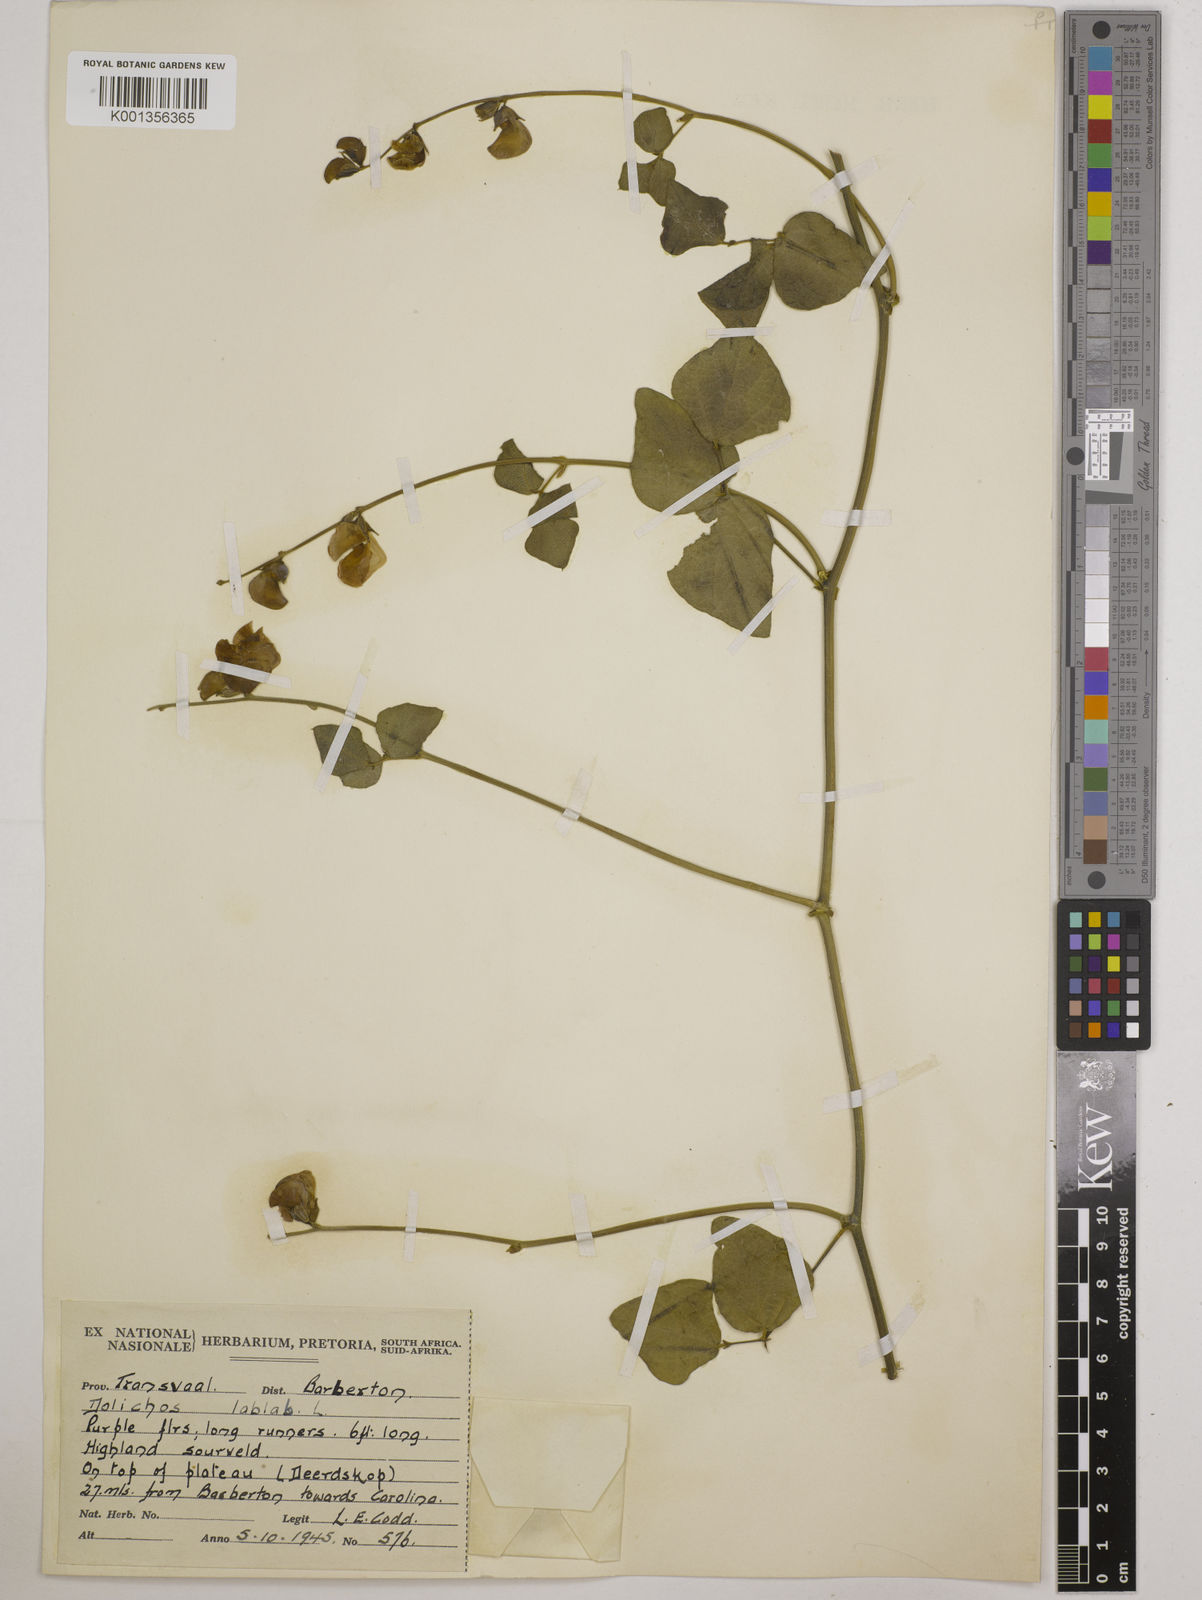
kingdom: Plantae
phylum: Tracheophyta
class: Magnoliopsida
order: Fabales
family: Fabaceae
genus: Lablab
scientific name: Lablab purpureus
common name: Lablab-bean
